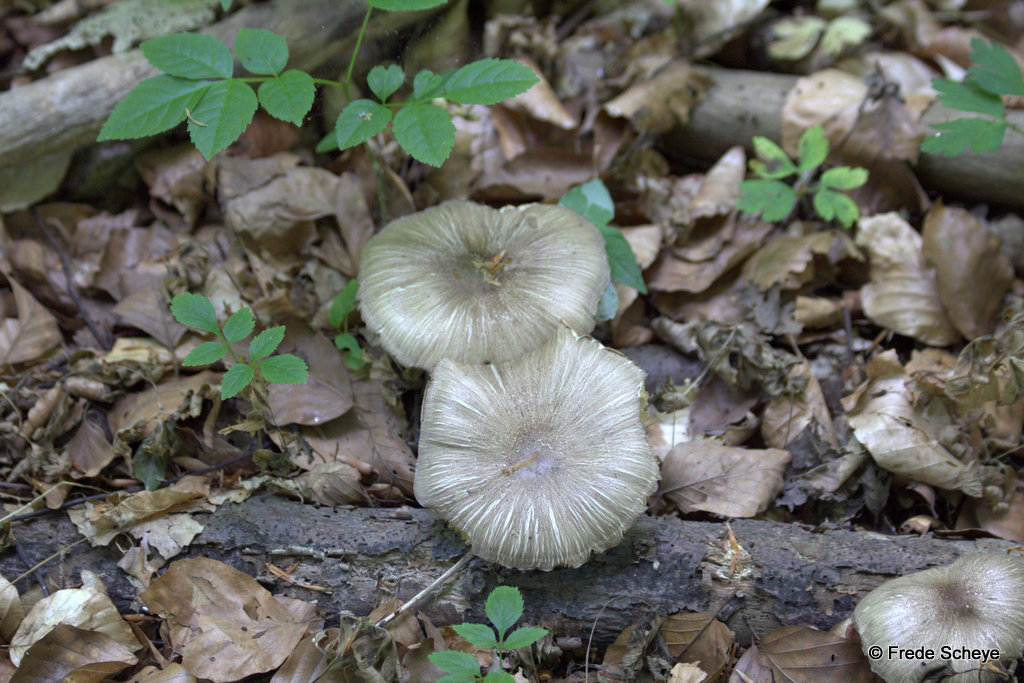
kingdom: Fungi
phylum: Basidiomycota
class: Agaricomycetes
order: Agaricales
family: Tricholomataceae
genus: Megacollybia
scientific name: Megacollybia platyphylla
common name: bredbladet væbnerhat
